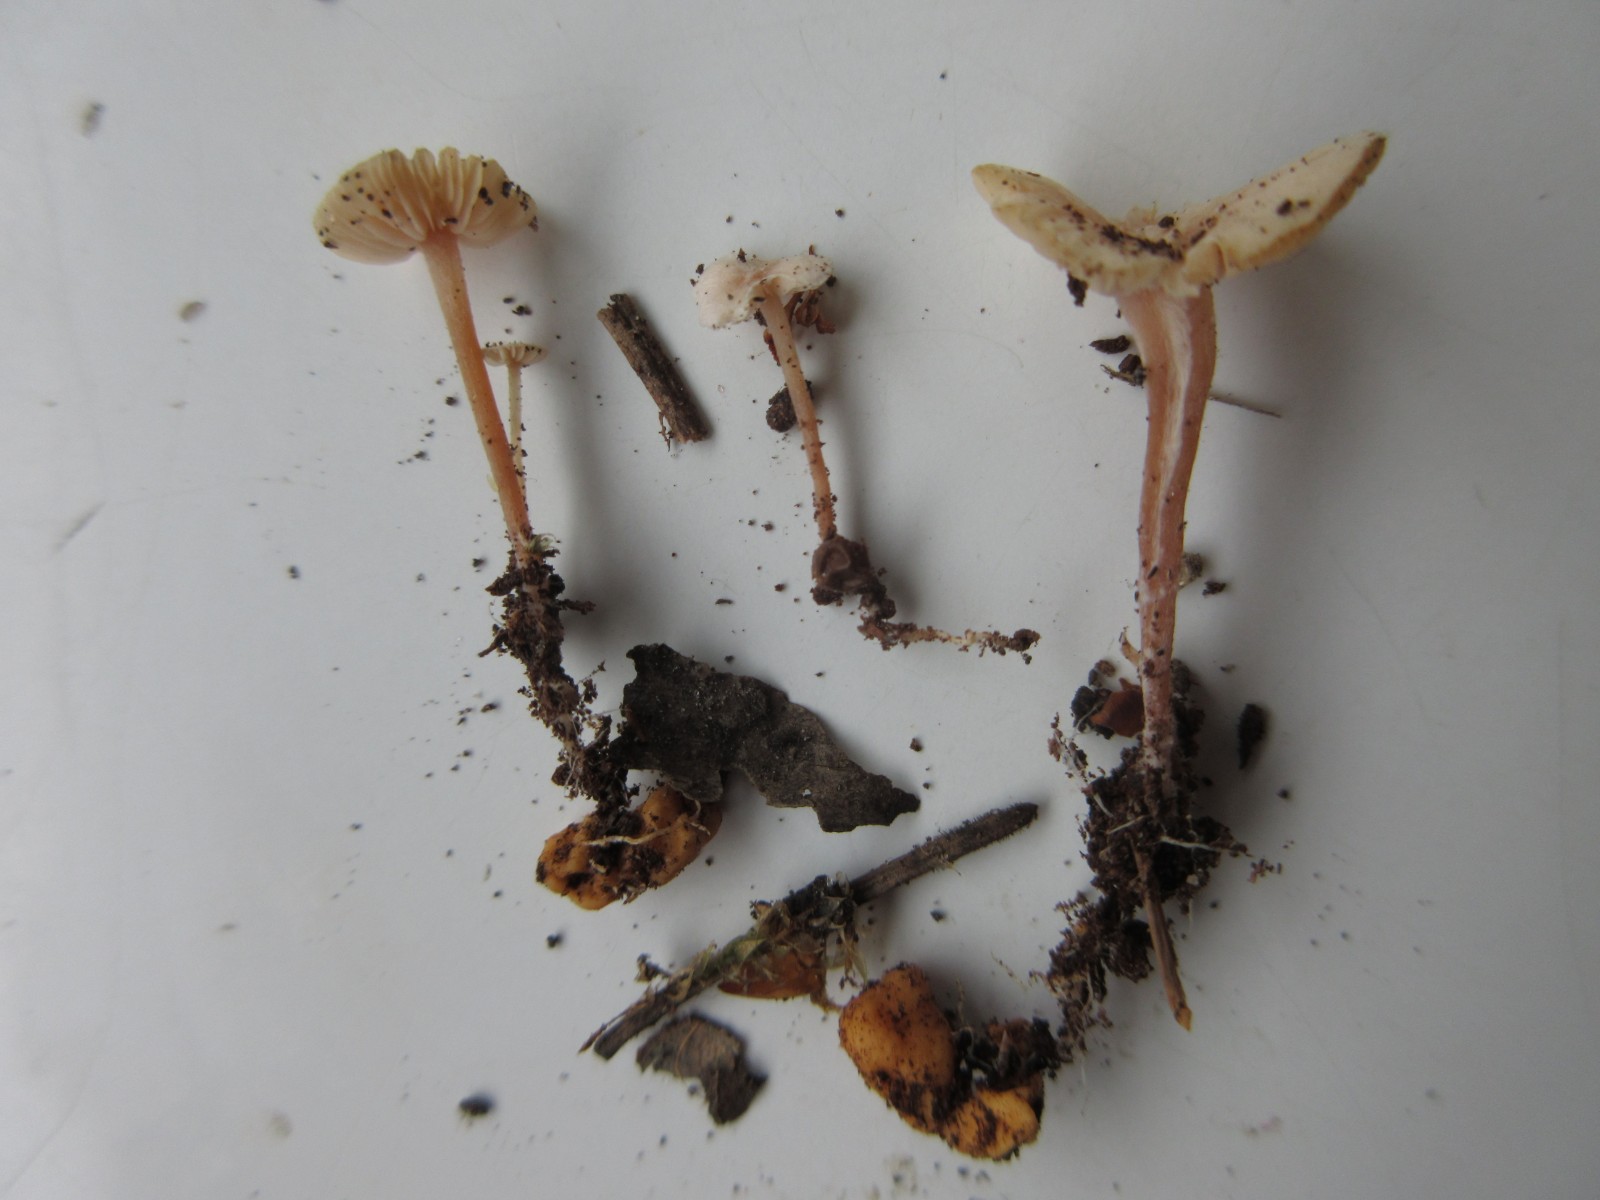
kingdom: Fungi
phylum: Basidiomycota
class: Agaricomycetes
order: Agaricales
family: Tricholomataceae
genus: Collybia
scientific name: Collybia cookei
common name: gulknoldet lighat
